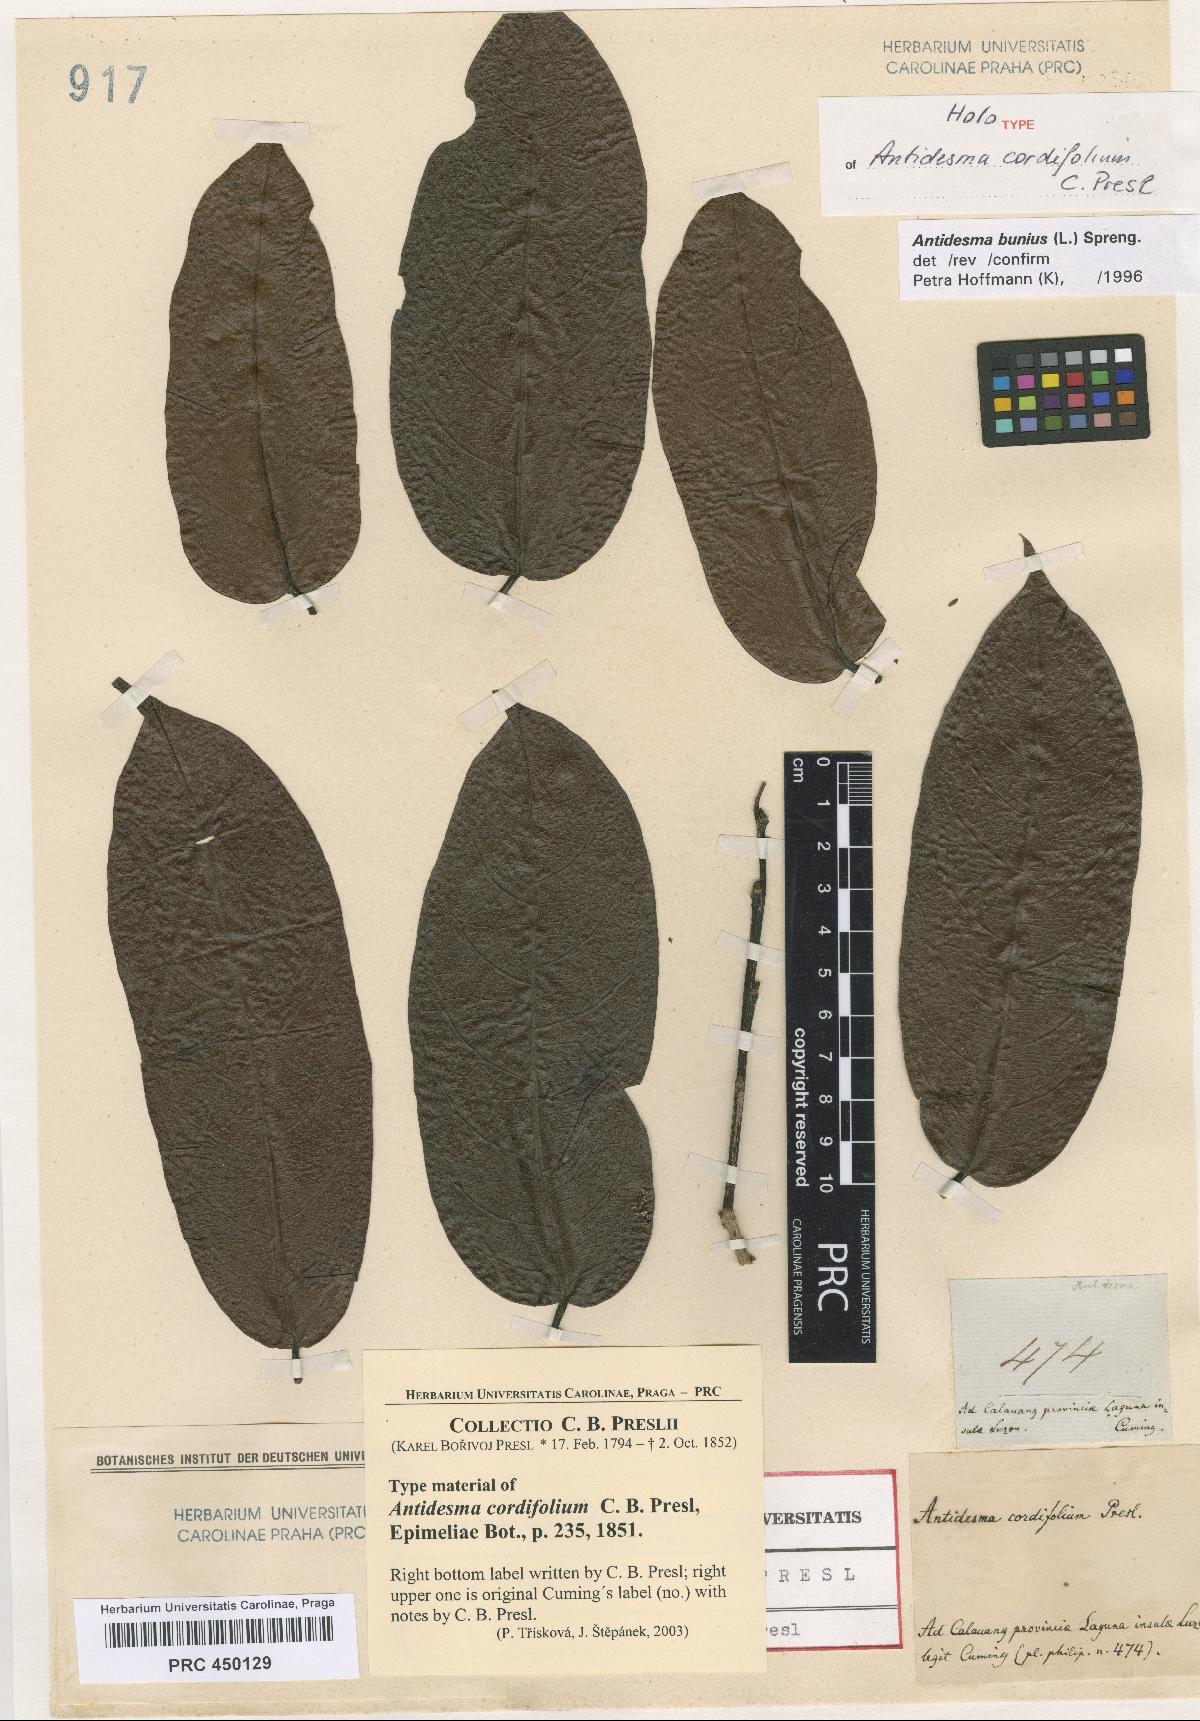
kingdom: Plantae
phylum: Tracheophyta
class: Magnoliopsida
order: Malpighiales
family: Phyllanthaceae
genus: Antidesma
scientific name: Antidesma bunius
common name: Chinese-laurel
